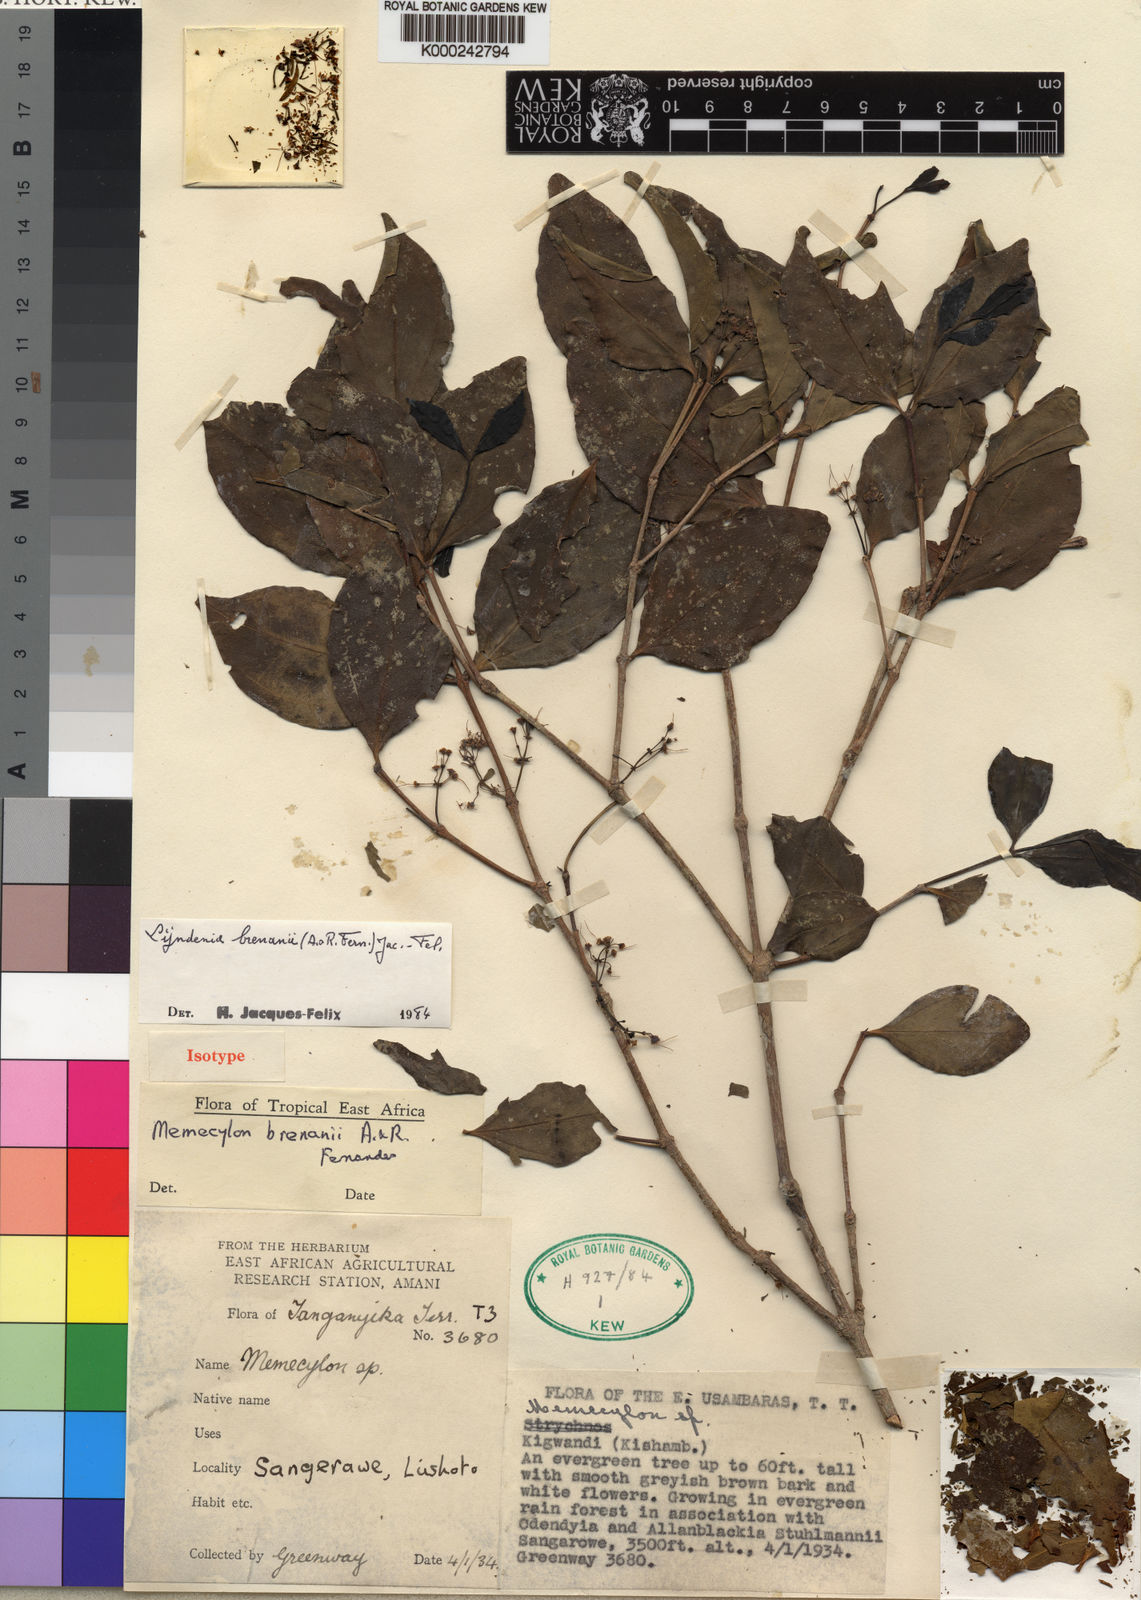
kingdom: Plantae
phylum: Tracheophyta
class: Magnoliopsida
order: Myrtales
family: Melastomataceae
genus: Lijndenia
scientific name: Lijndenia brenanii
